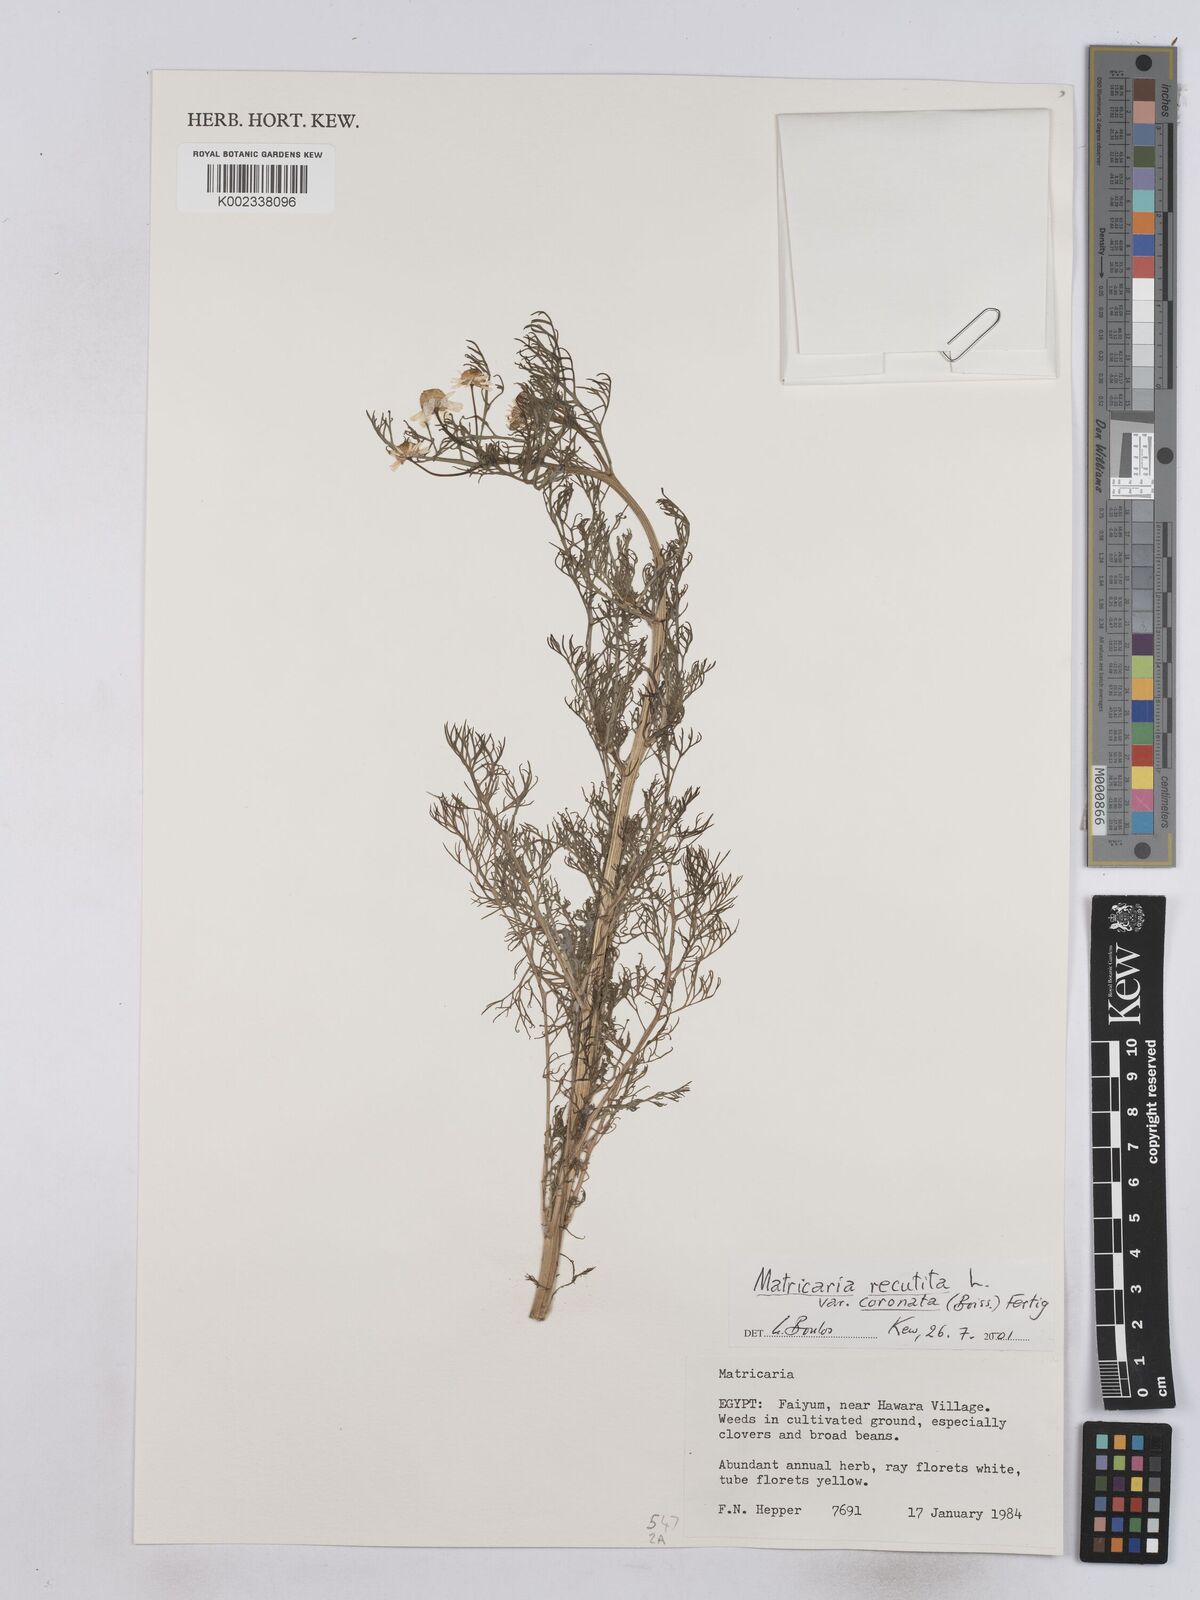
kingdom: Plantae
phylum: Tracheophyta
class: Magnoliopsida
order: Asterales
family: Asteraceae
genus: Matricaria
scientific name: Matricaria chamomilla
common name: Scented mayweed
